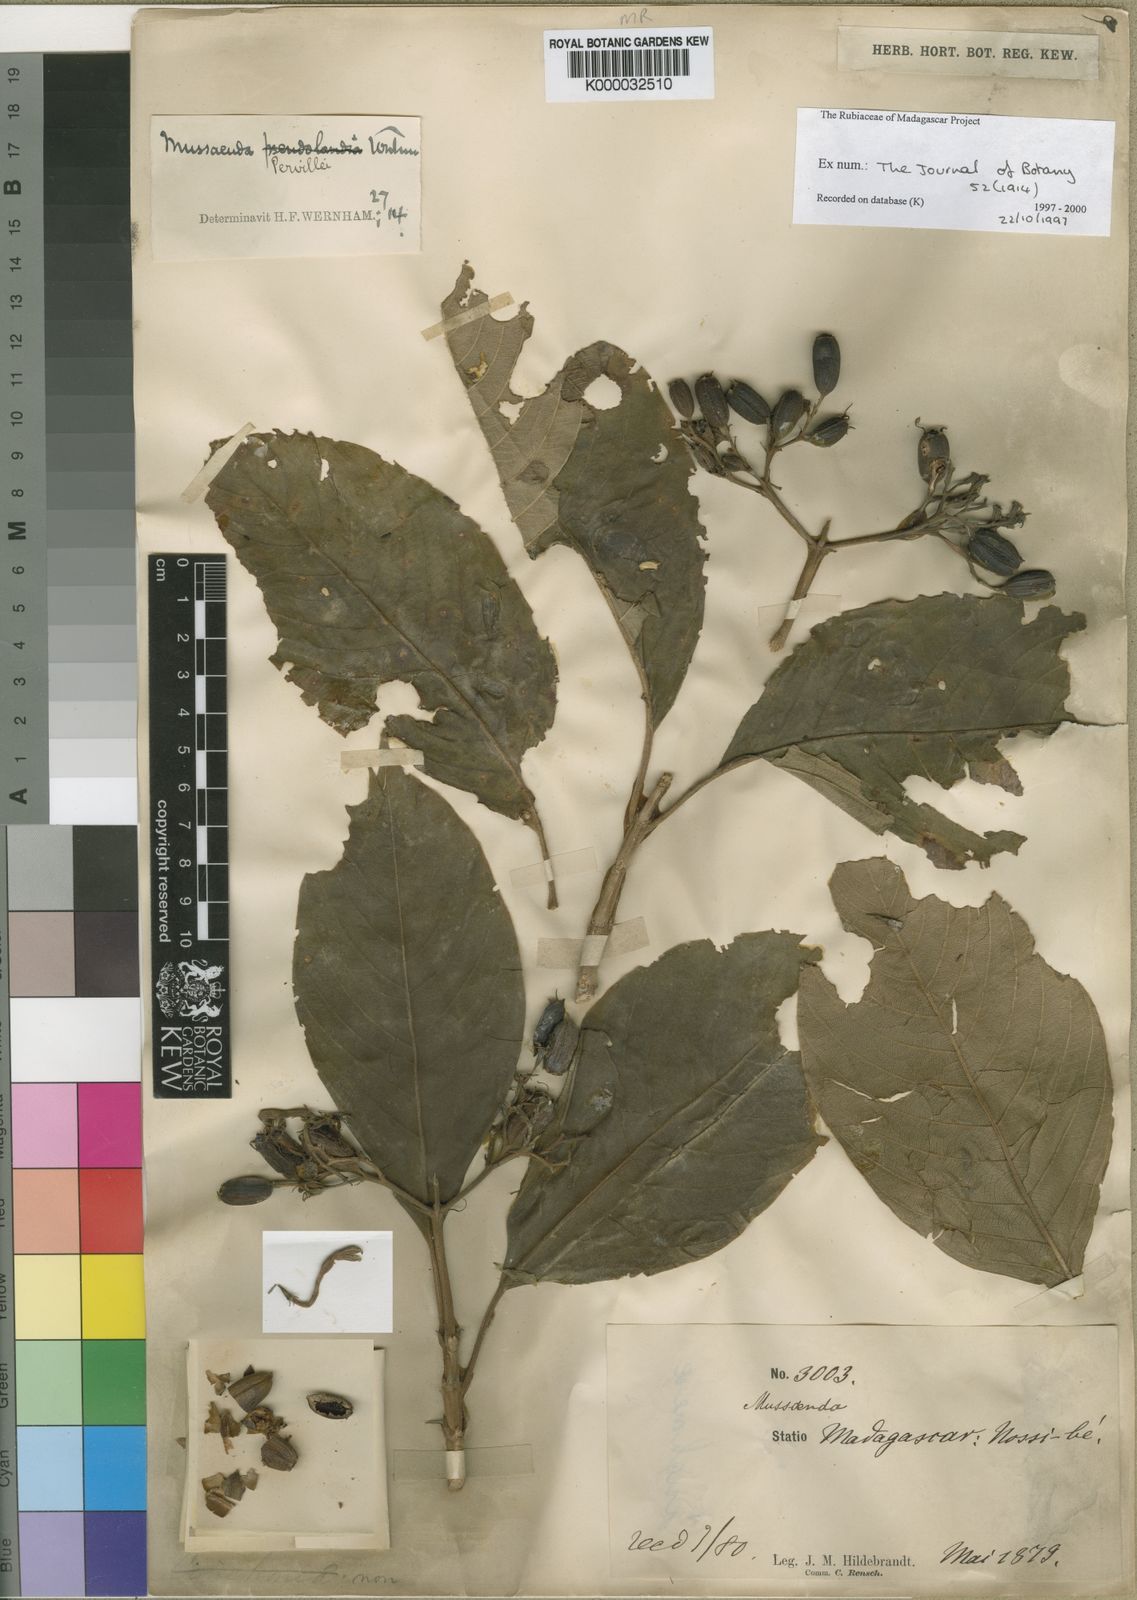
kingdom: Plantae
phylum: Tracheophyta
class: Magnoliopsida
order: Gentianales
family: Rubiaceae
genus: Bremeria
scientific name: Bremeria pervillei
